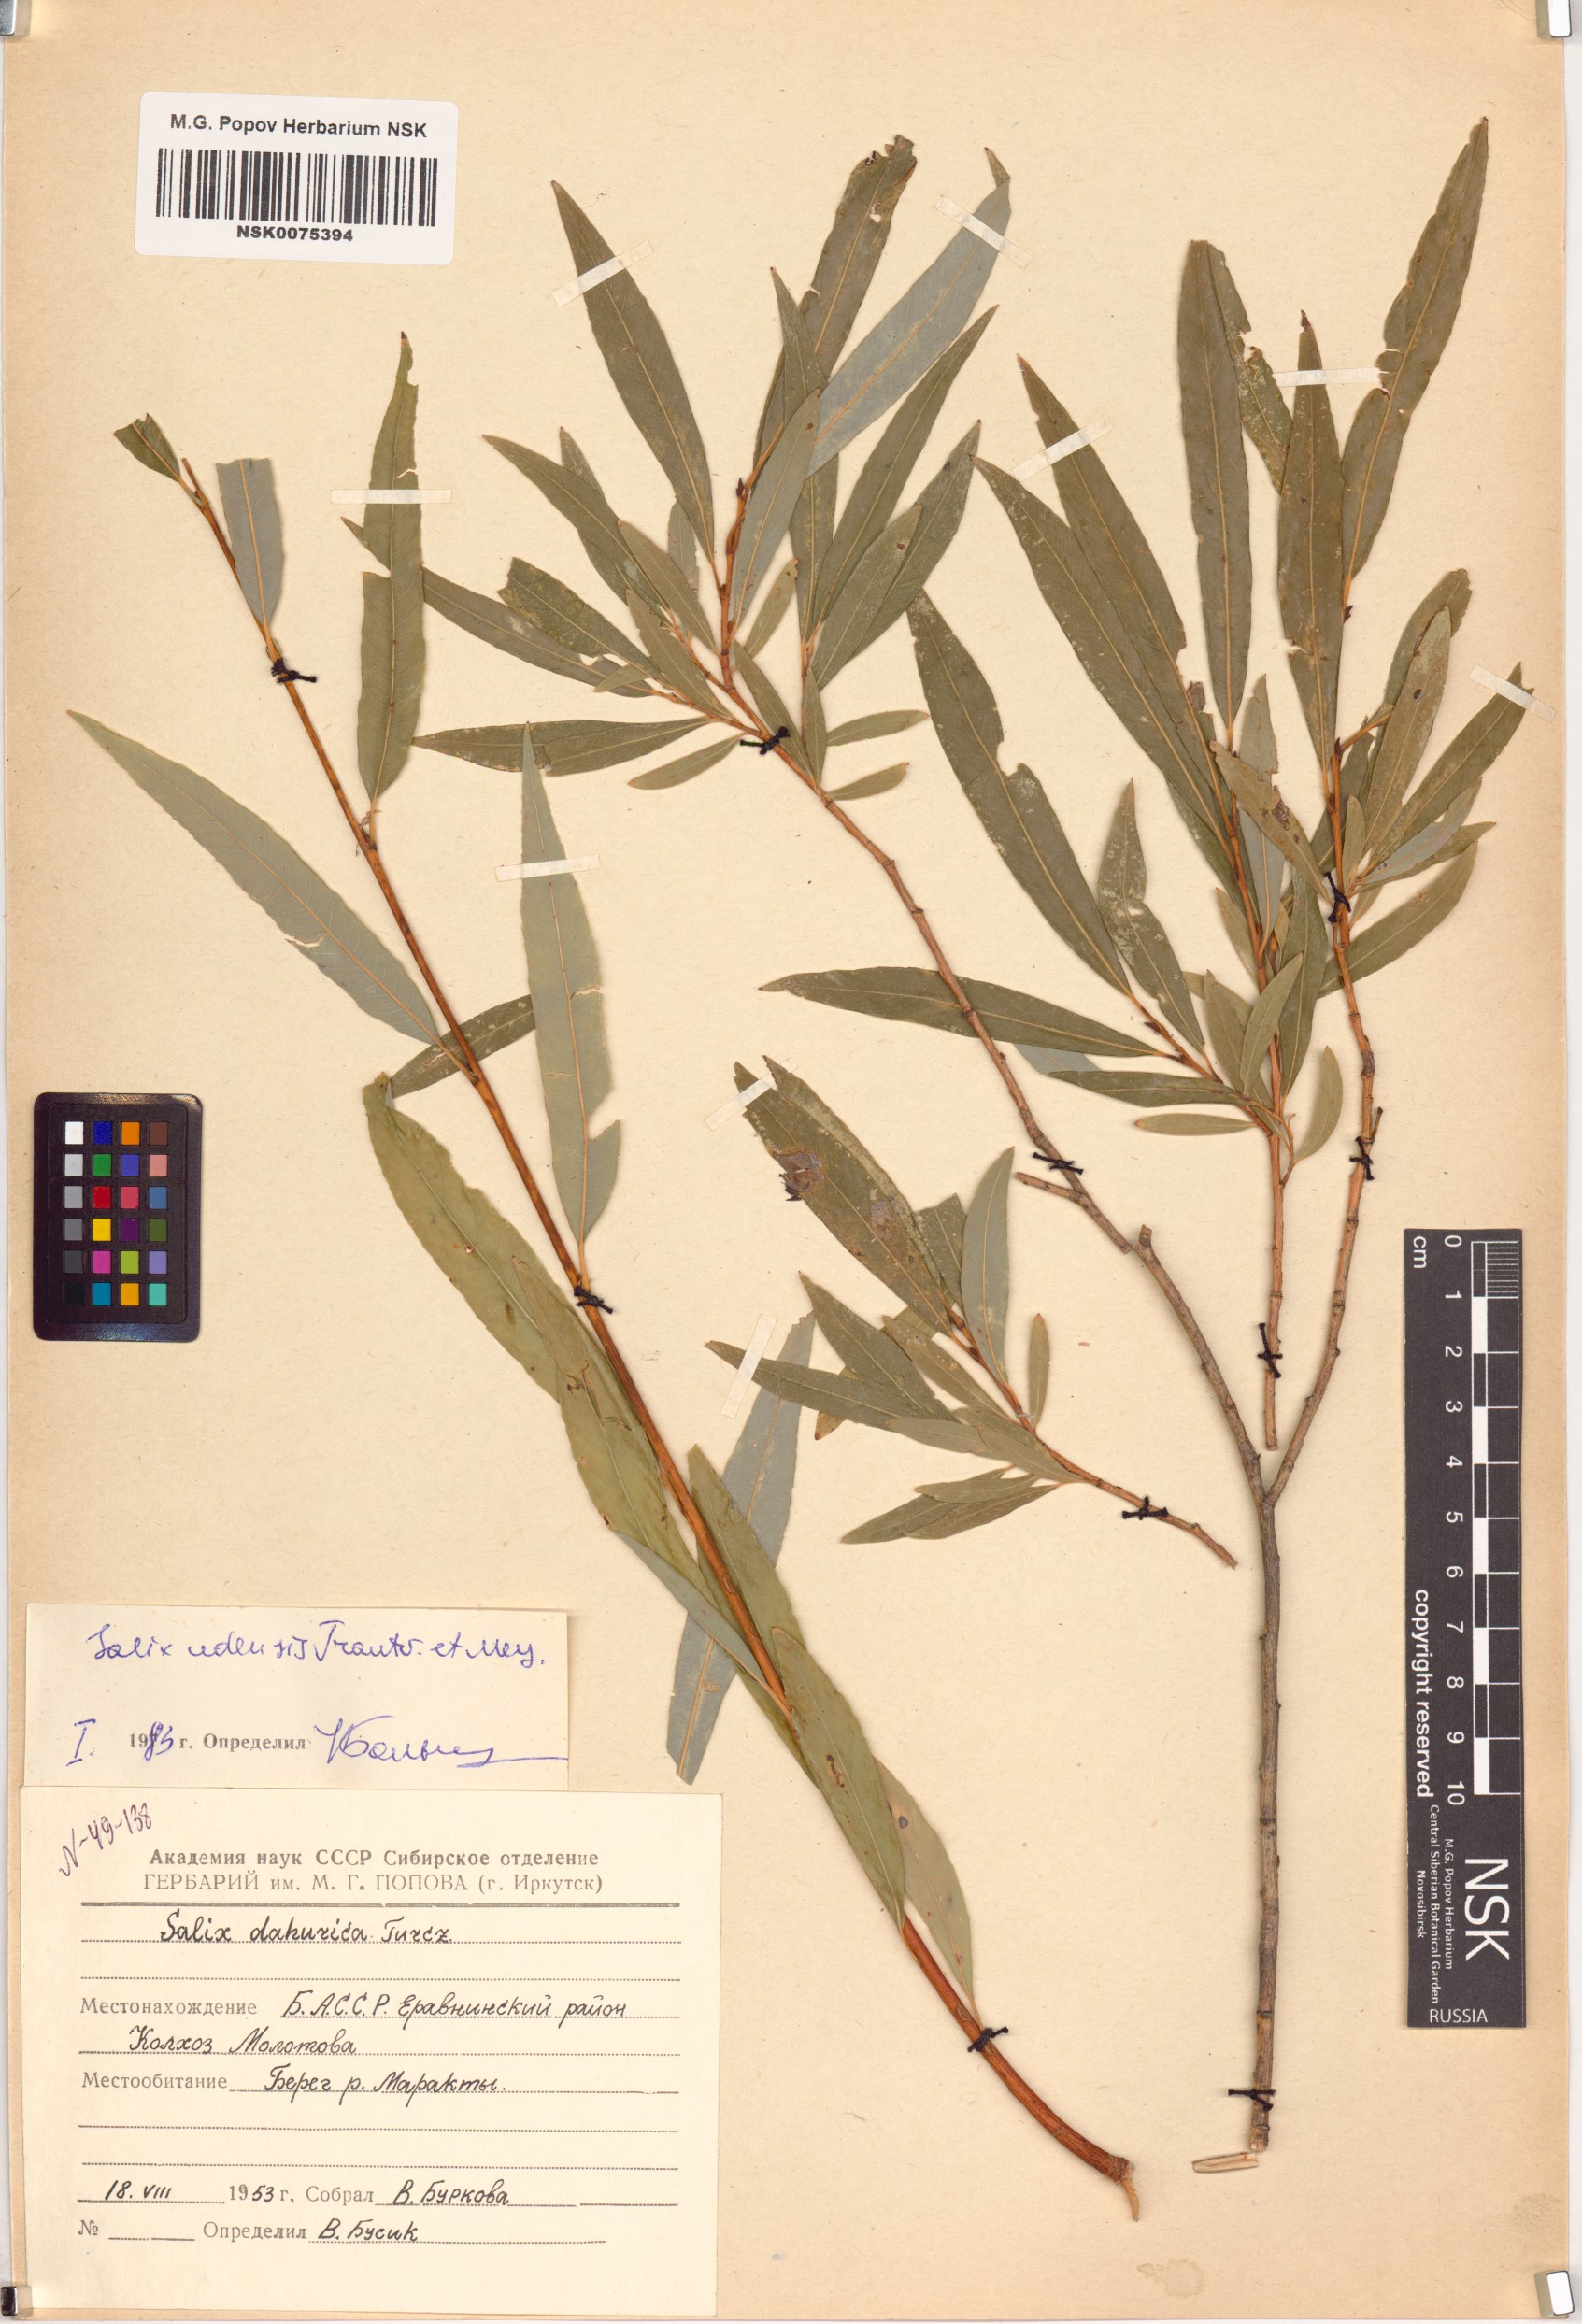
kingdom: Plantae
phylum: Tracheophyta
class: Magnoliopsida
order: Malpighiales
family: Salicaceae
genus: Salix
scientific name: Salix udensis
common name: Sachalin willow
